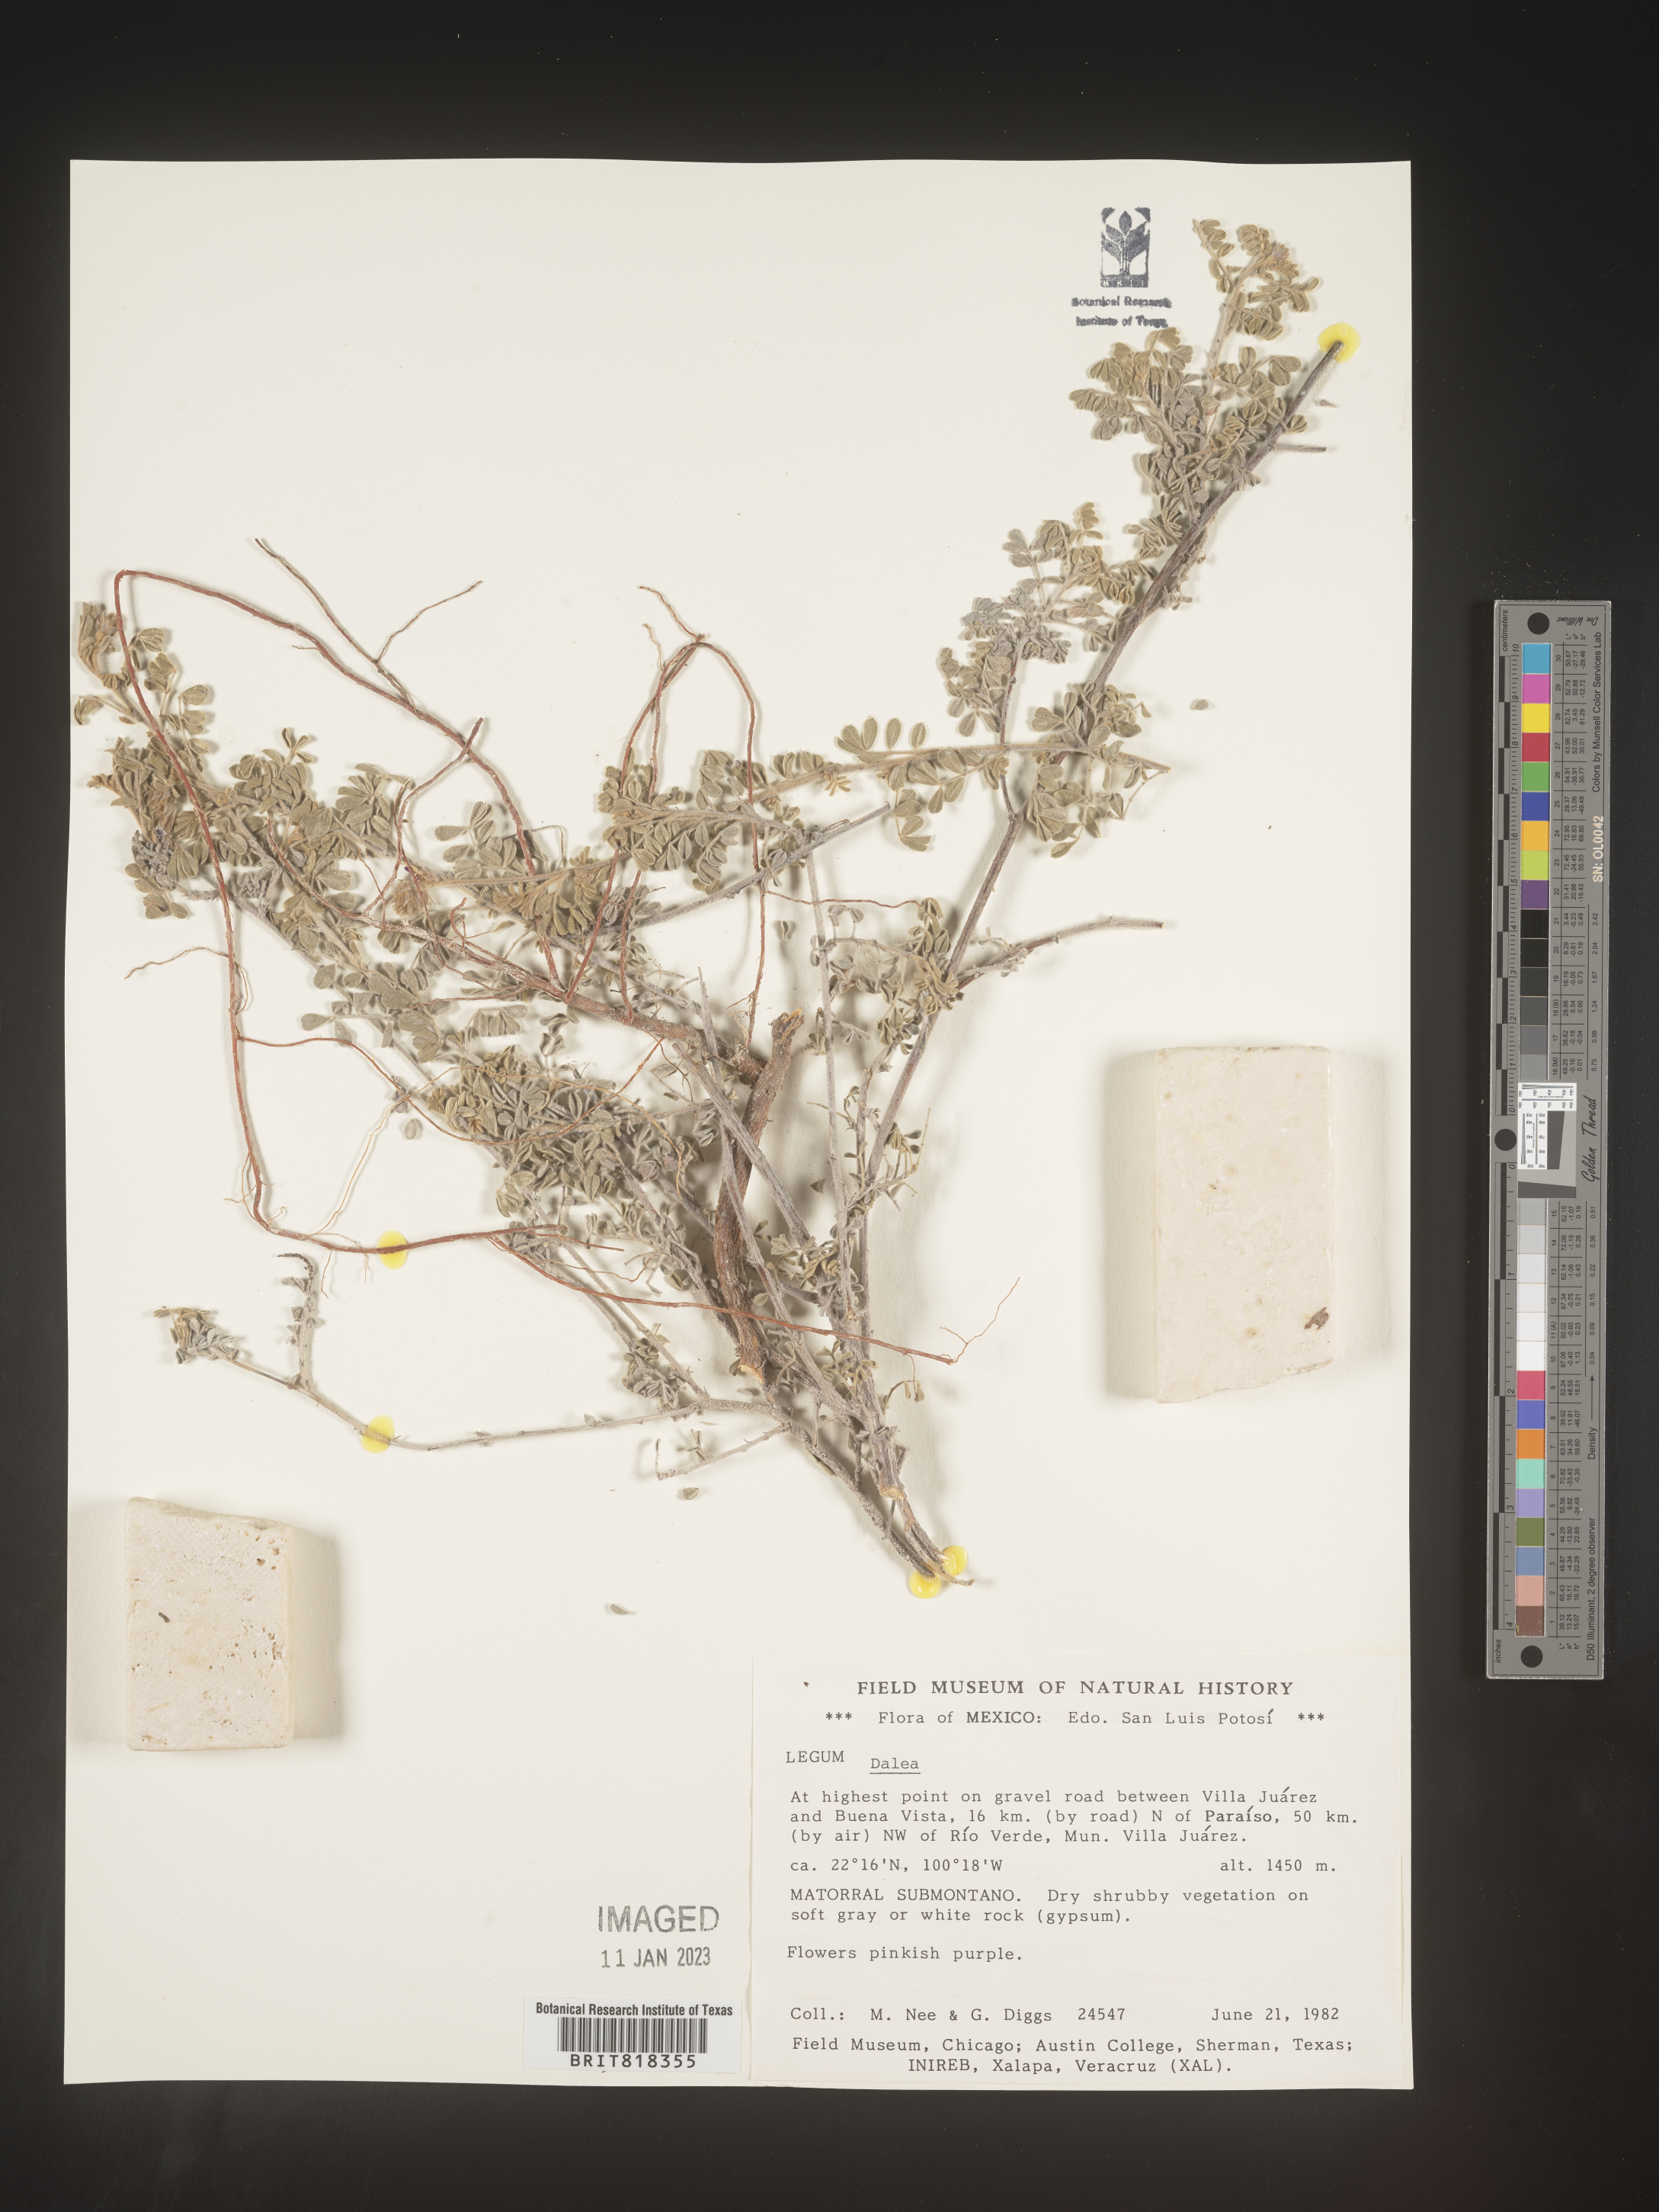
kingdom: Plantae
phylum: Tracheophyta
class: Magnoliopsida
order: Fabales
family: Fabaceae
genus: Dalea
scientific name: Dalea
